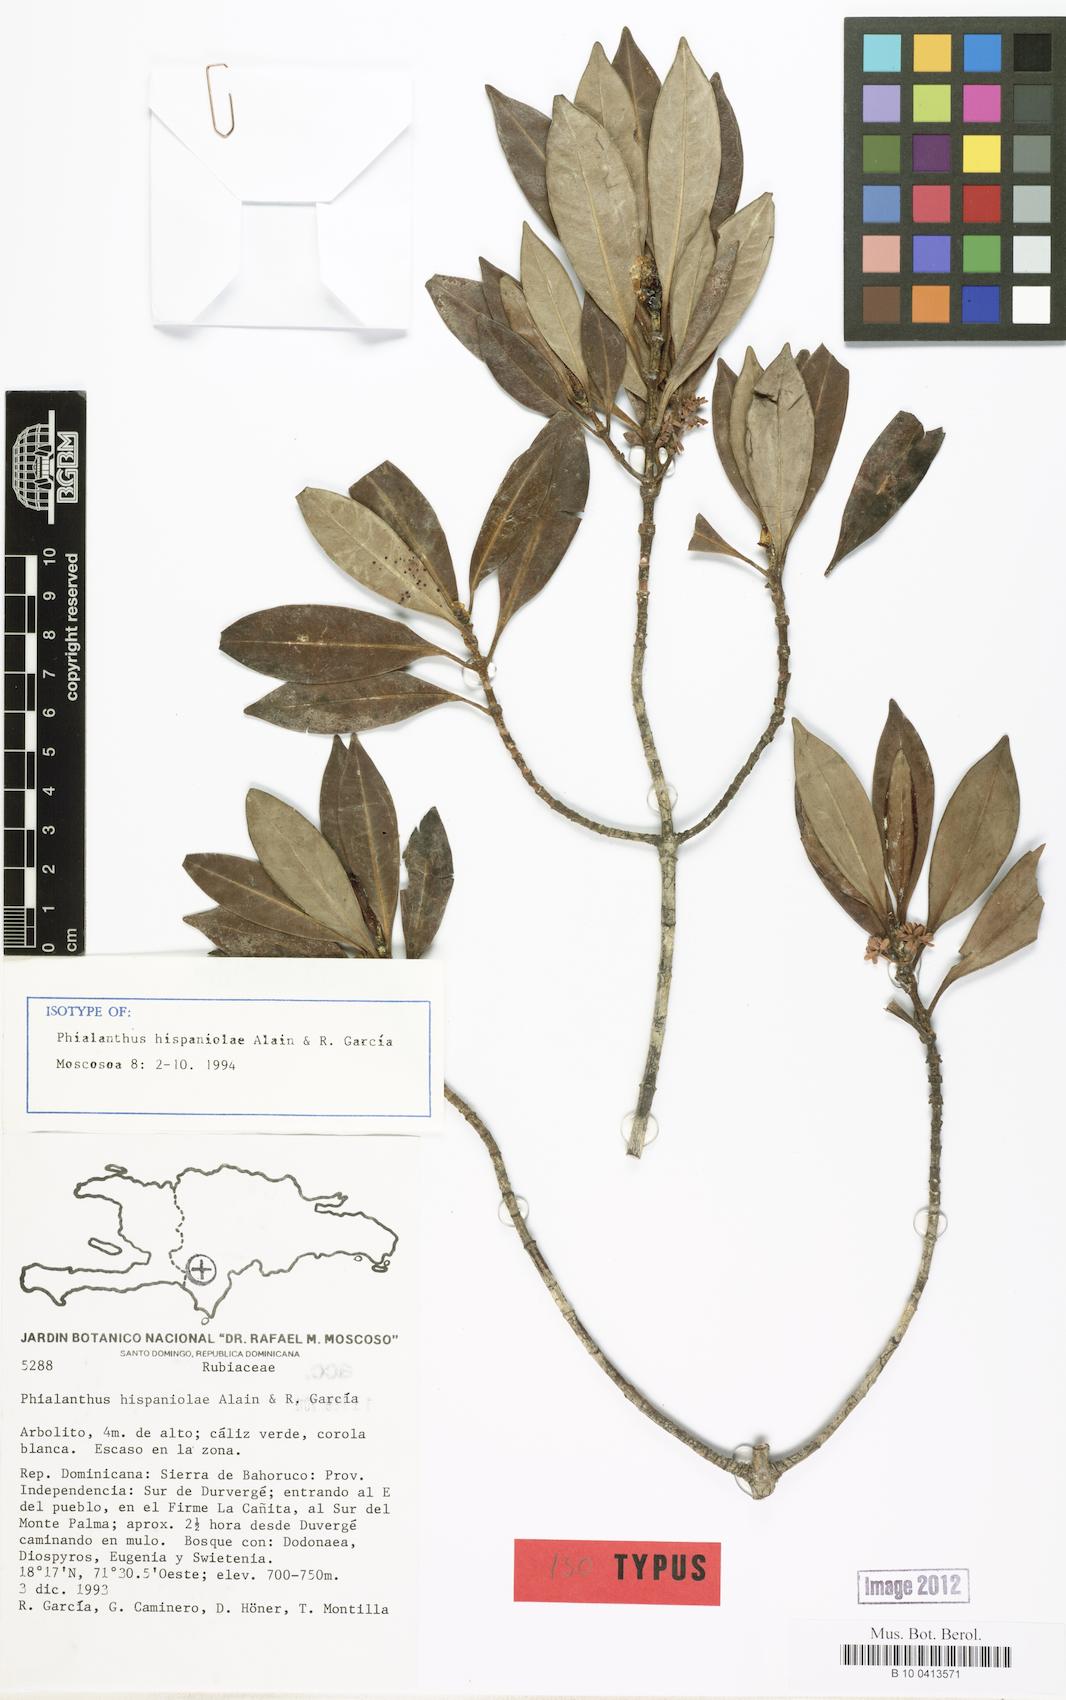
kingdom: Plantae
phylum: Tracheophyta
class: Magnoliopsida
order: Gentianales
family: Rubiaceae
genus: Phialanthus
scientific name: Phialanthus hispaniolae
